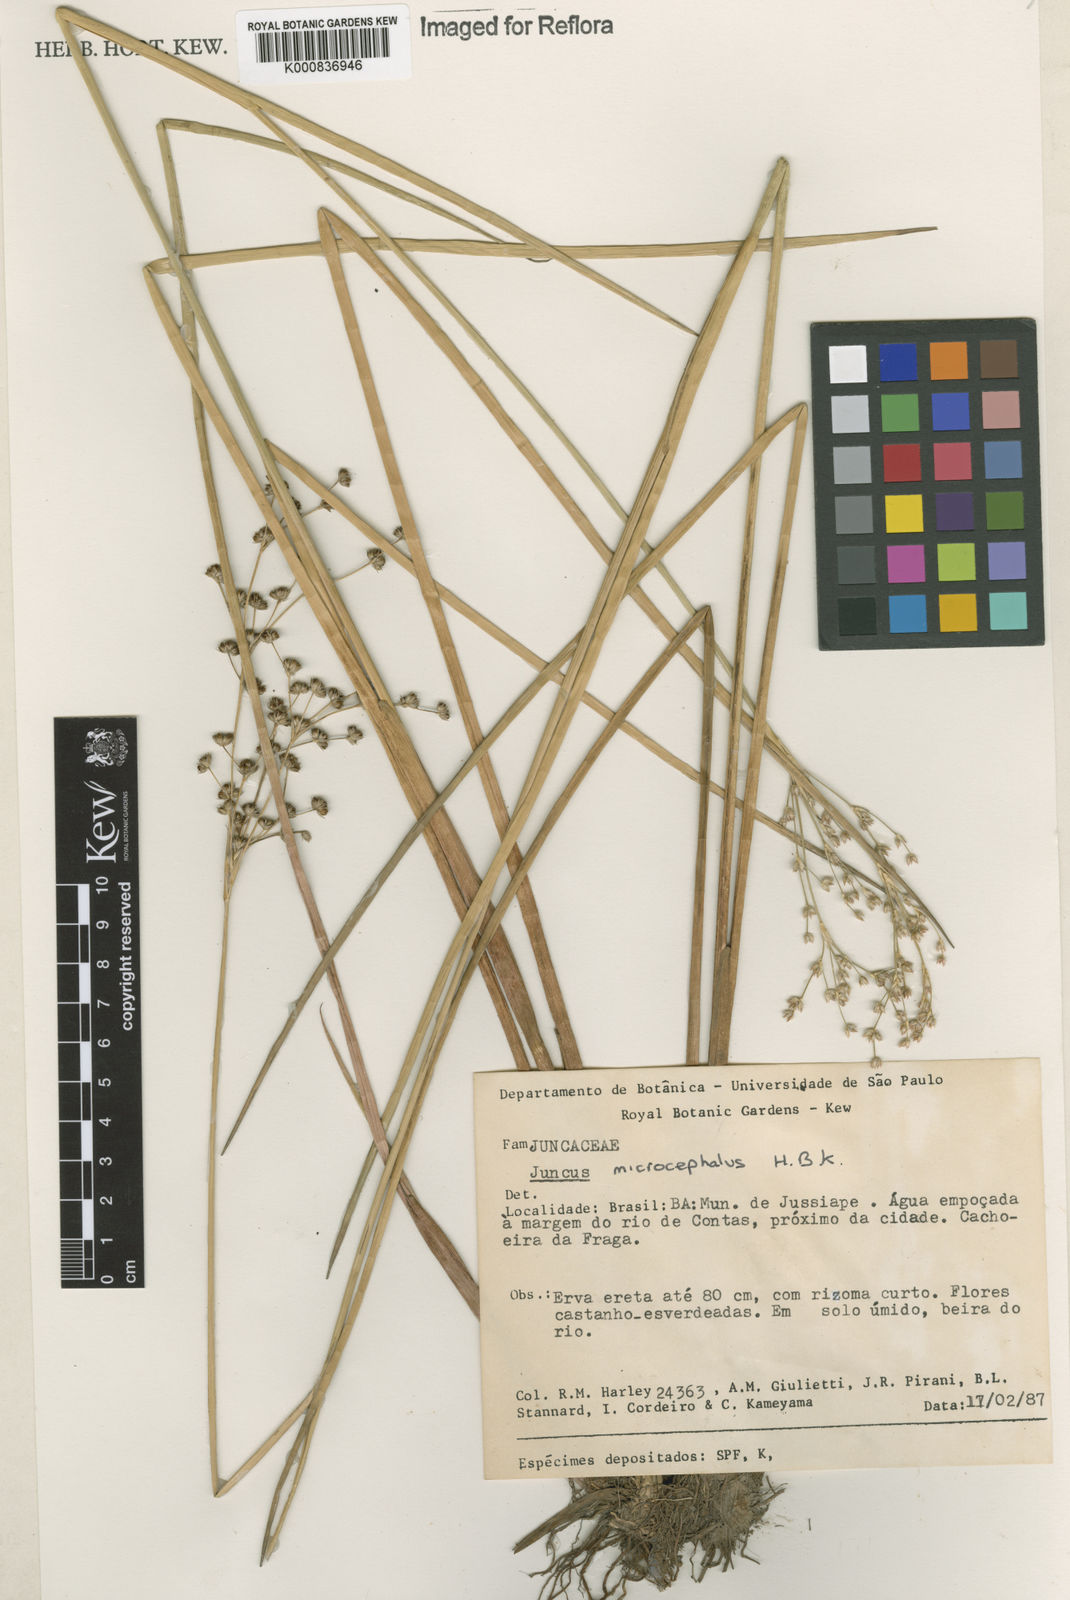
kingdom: Plantae
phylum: Tracheophyta
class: Liliopsida
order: Poales
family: Juncaceae
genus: Juncus
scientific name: Juncus microcephalus
